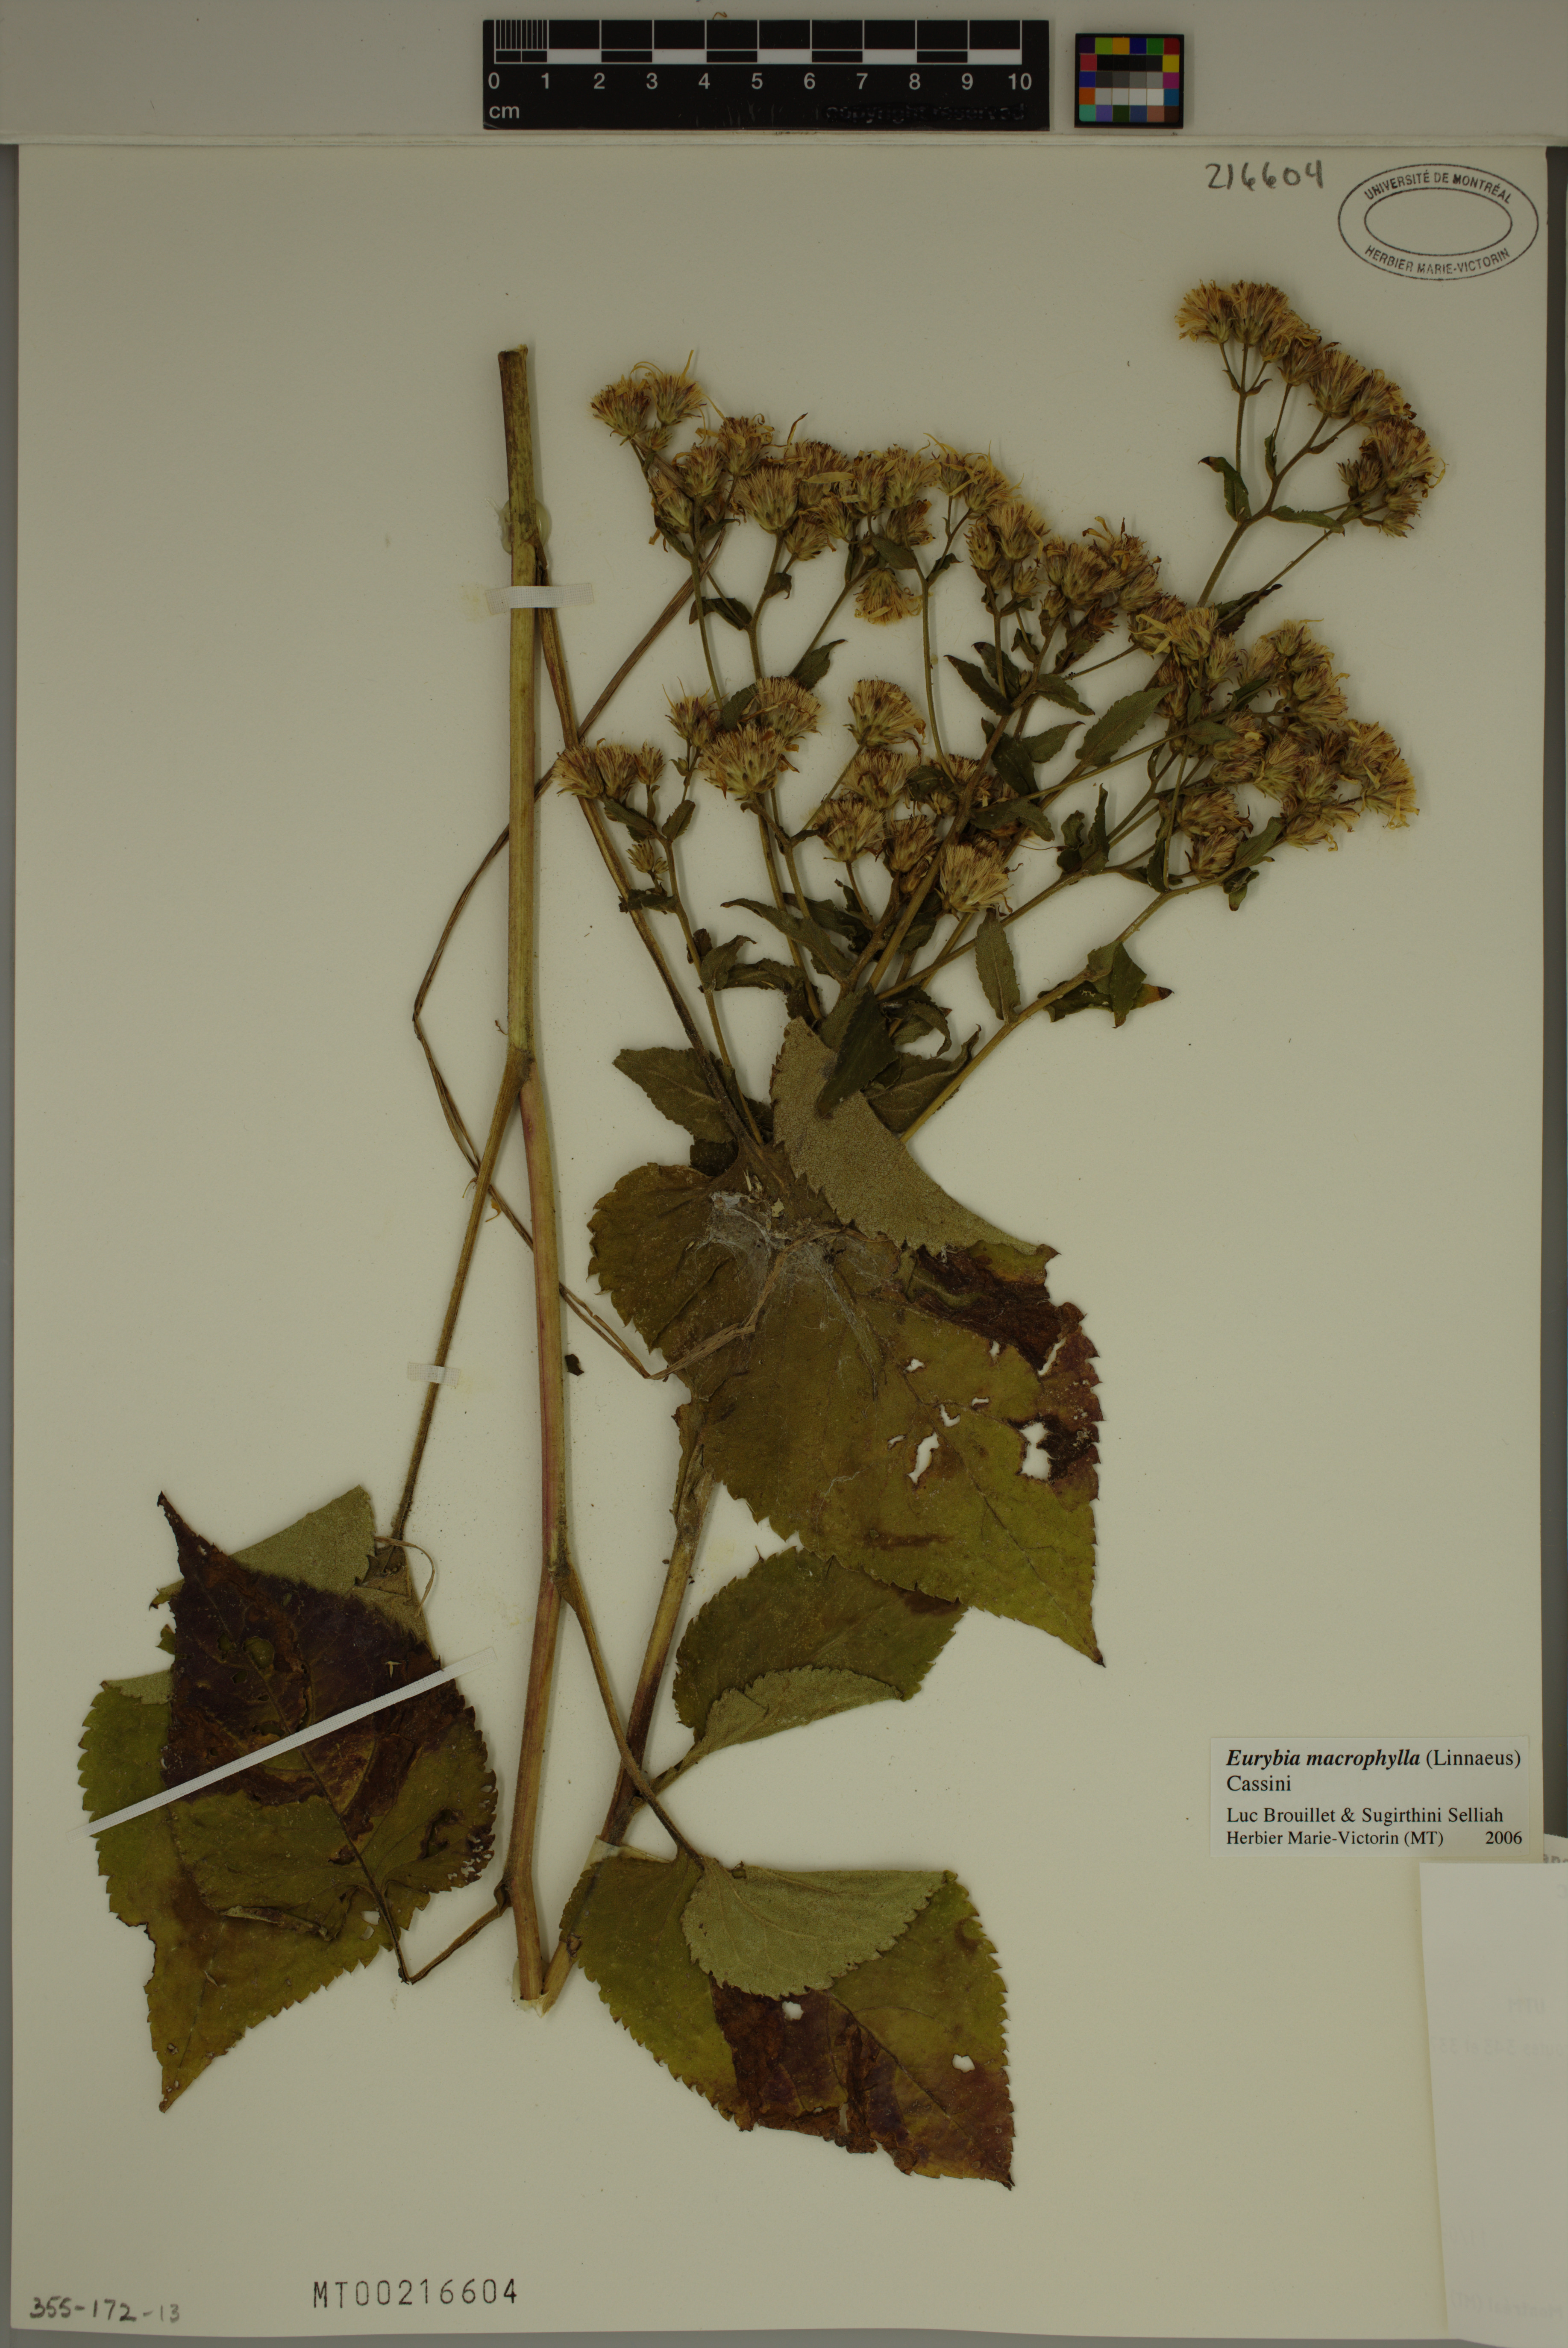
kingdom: Plantae
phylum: Tracheophyta
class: Magnoliopsida
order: Asterales
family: Asteraceae
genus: Eurybia
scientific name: Eurybia macrophylla
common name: Big-leaved aster
